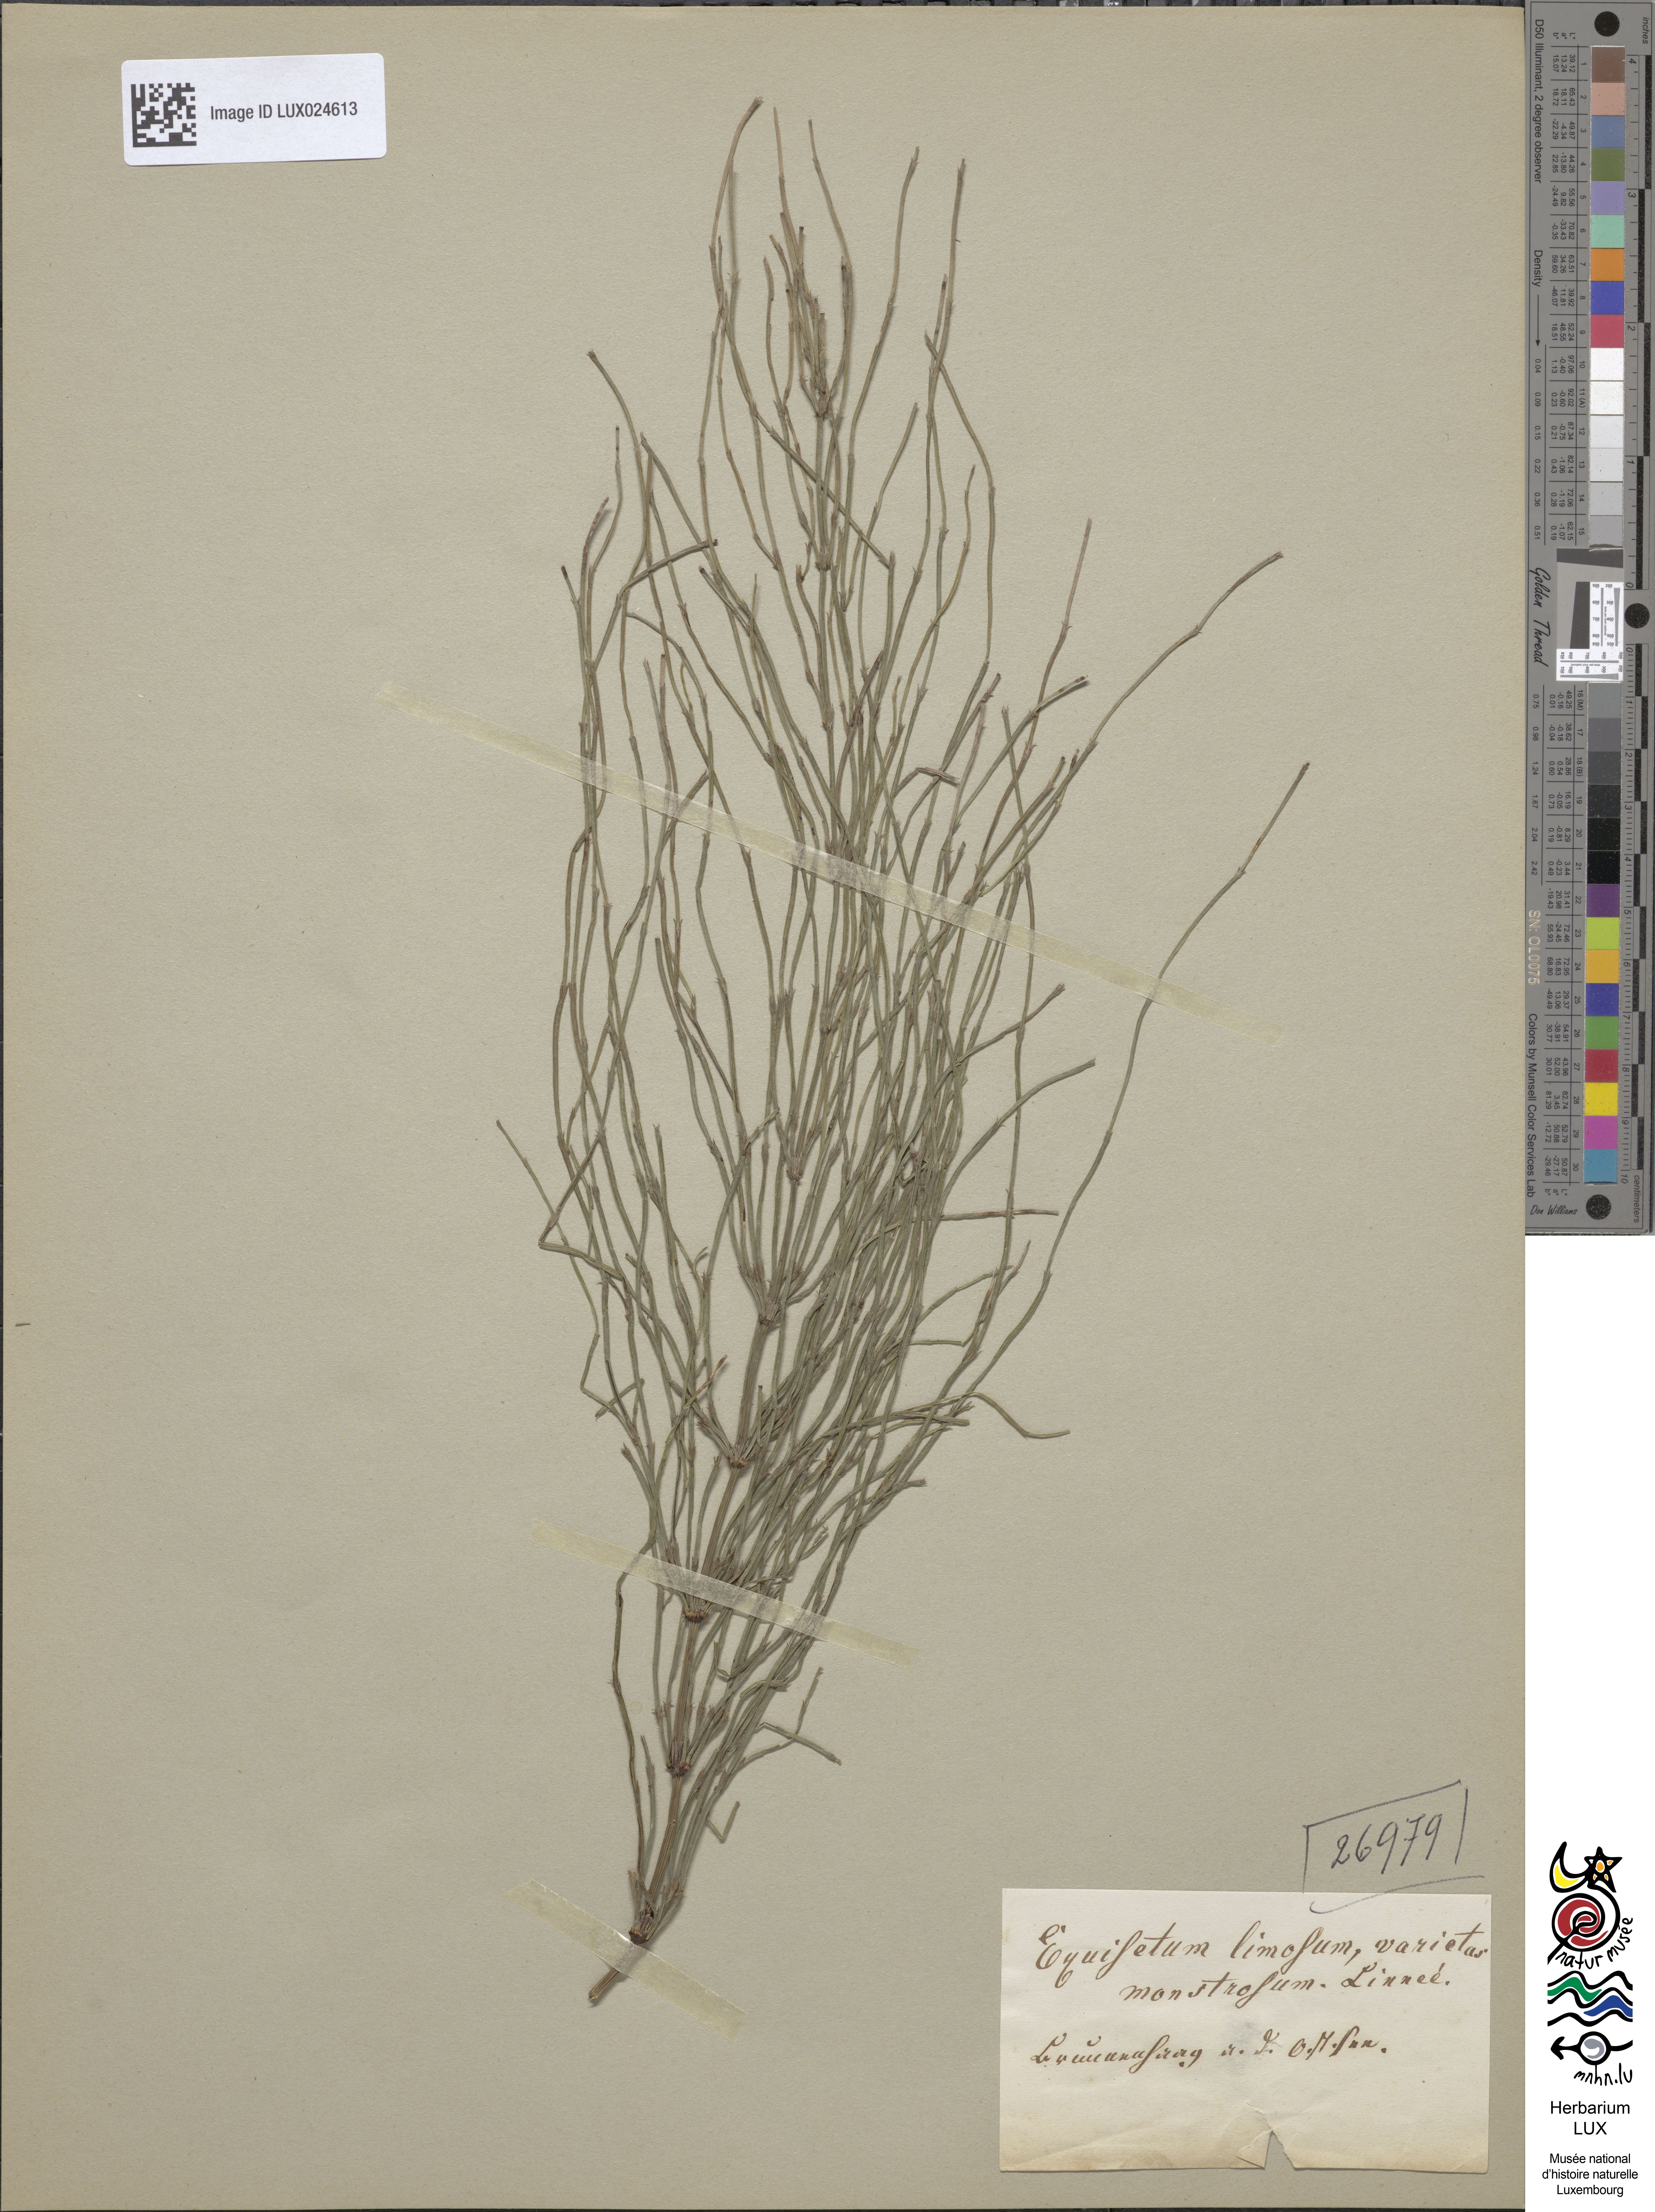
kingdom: Plantae
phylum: Tracheophyta
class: Polypodiopsida
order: Equisetales
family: Equisetaceae
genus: Equisetum
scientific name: Equisetum fluviatile
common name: Water horsetail
